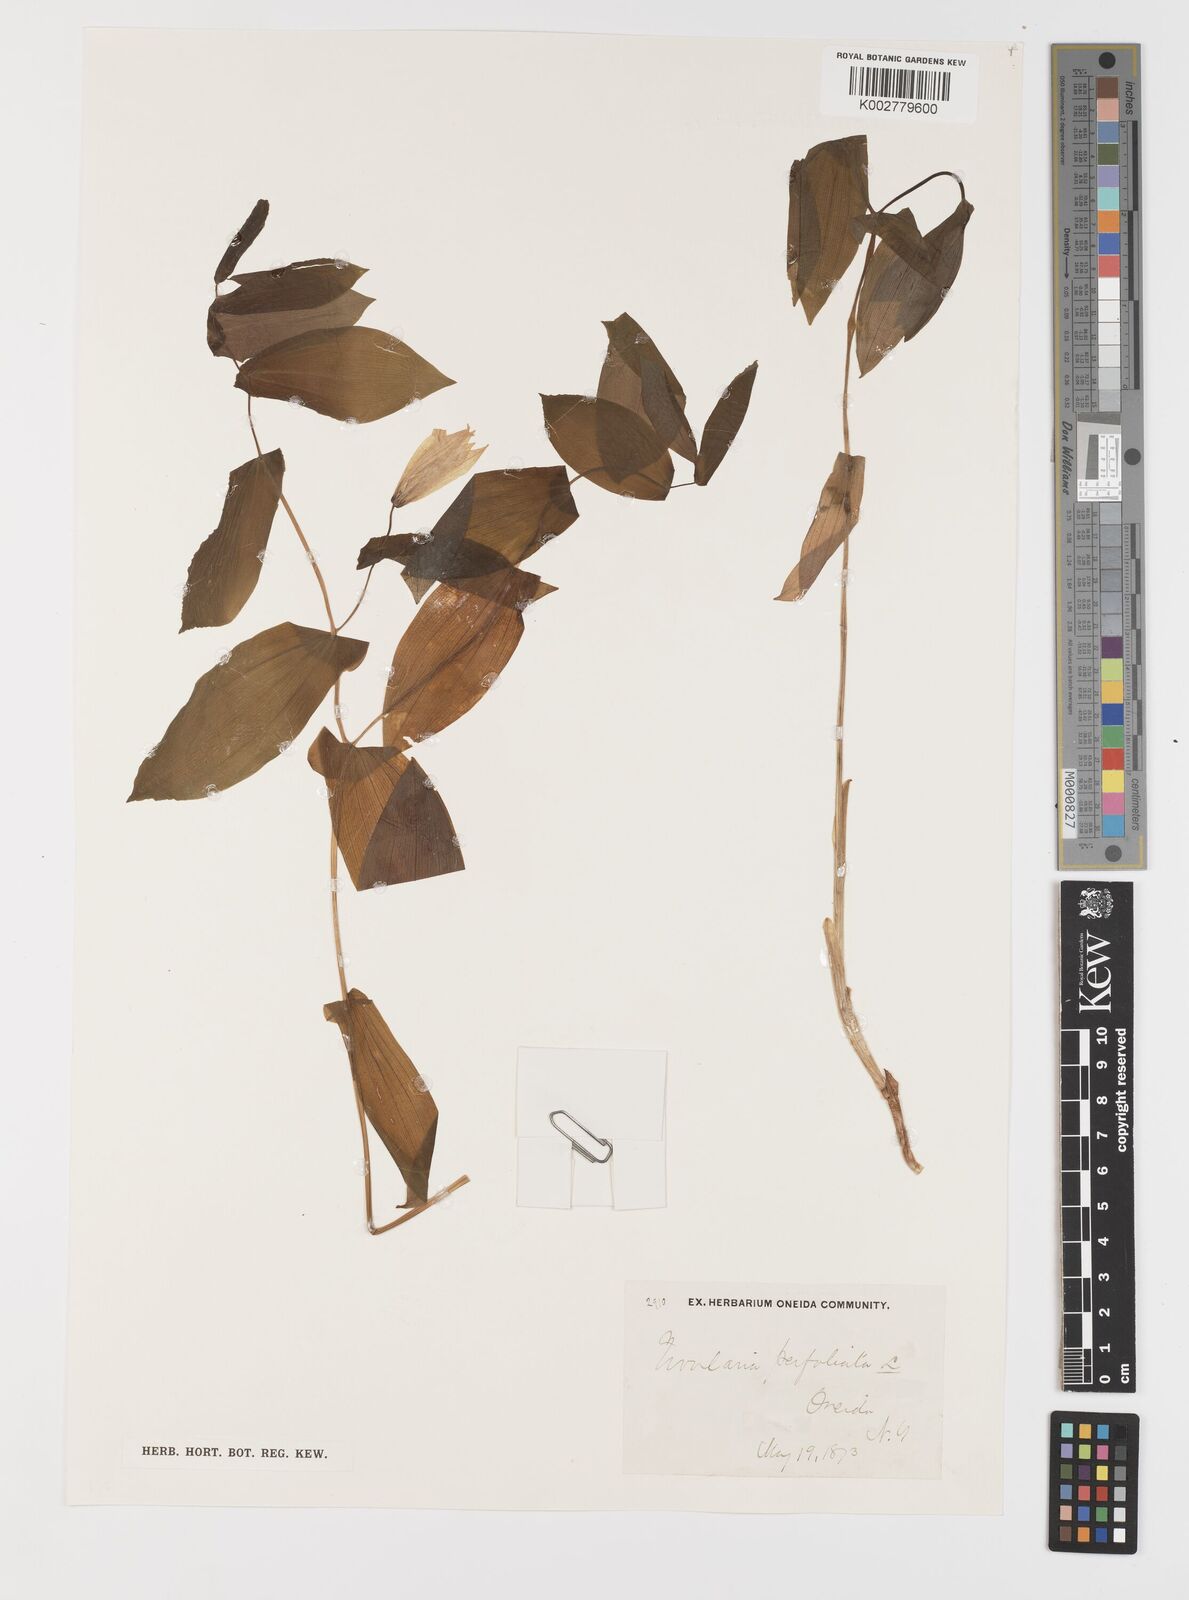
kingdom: Plantae
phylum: Tracheophyta
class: Liliopsida
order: Liliales
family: Colchicaceae
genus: Uvularia
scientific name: Uvularia perfoliata
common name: Perfoliate bellwort
